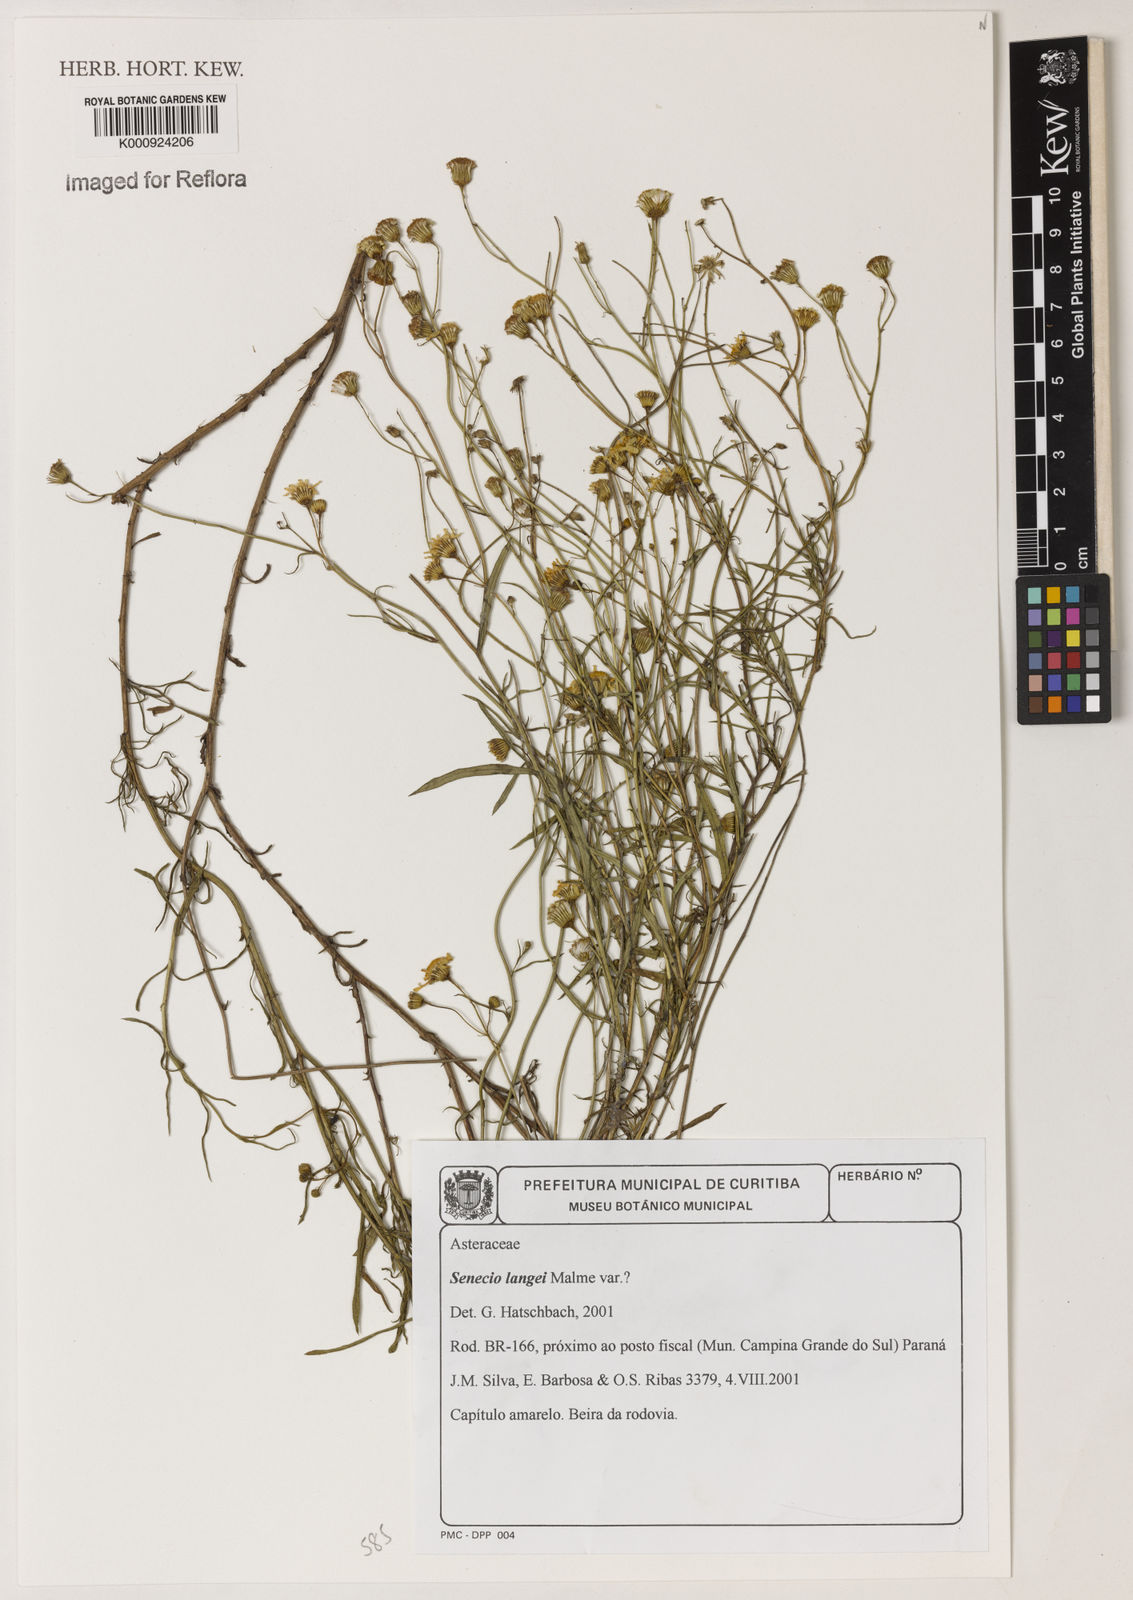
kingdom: Plantae
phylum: Tracheophyta
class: Magnoliopsida
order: Asterales
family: Asteraceae
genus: Senecio
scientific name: Senecio langei
